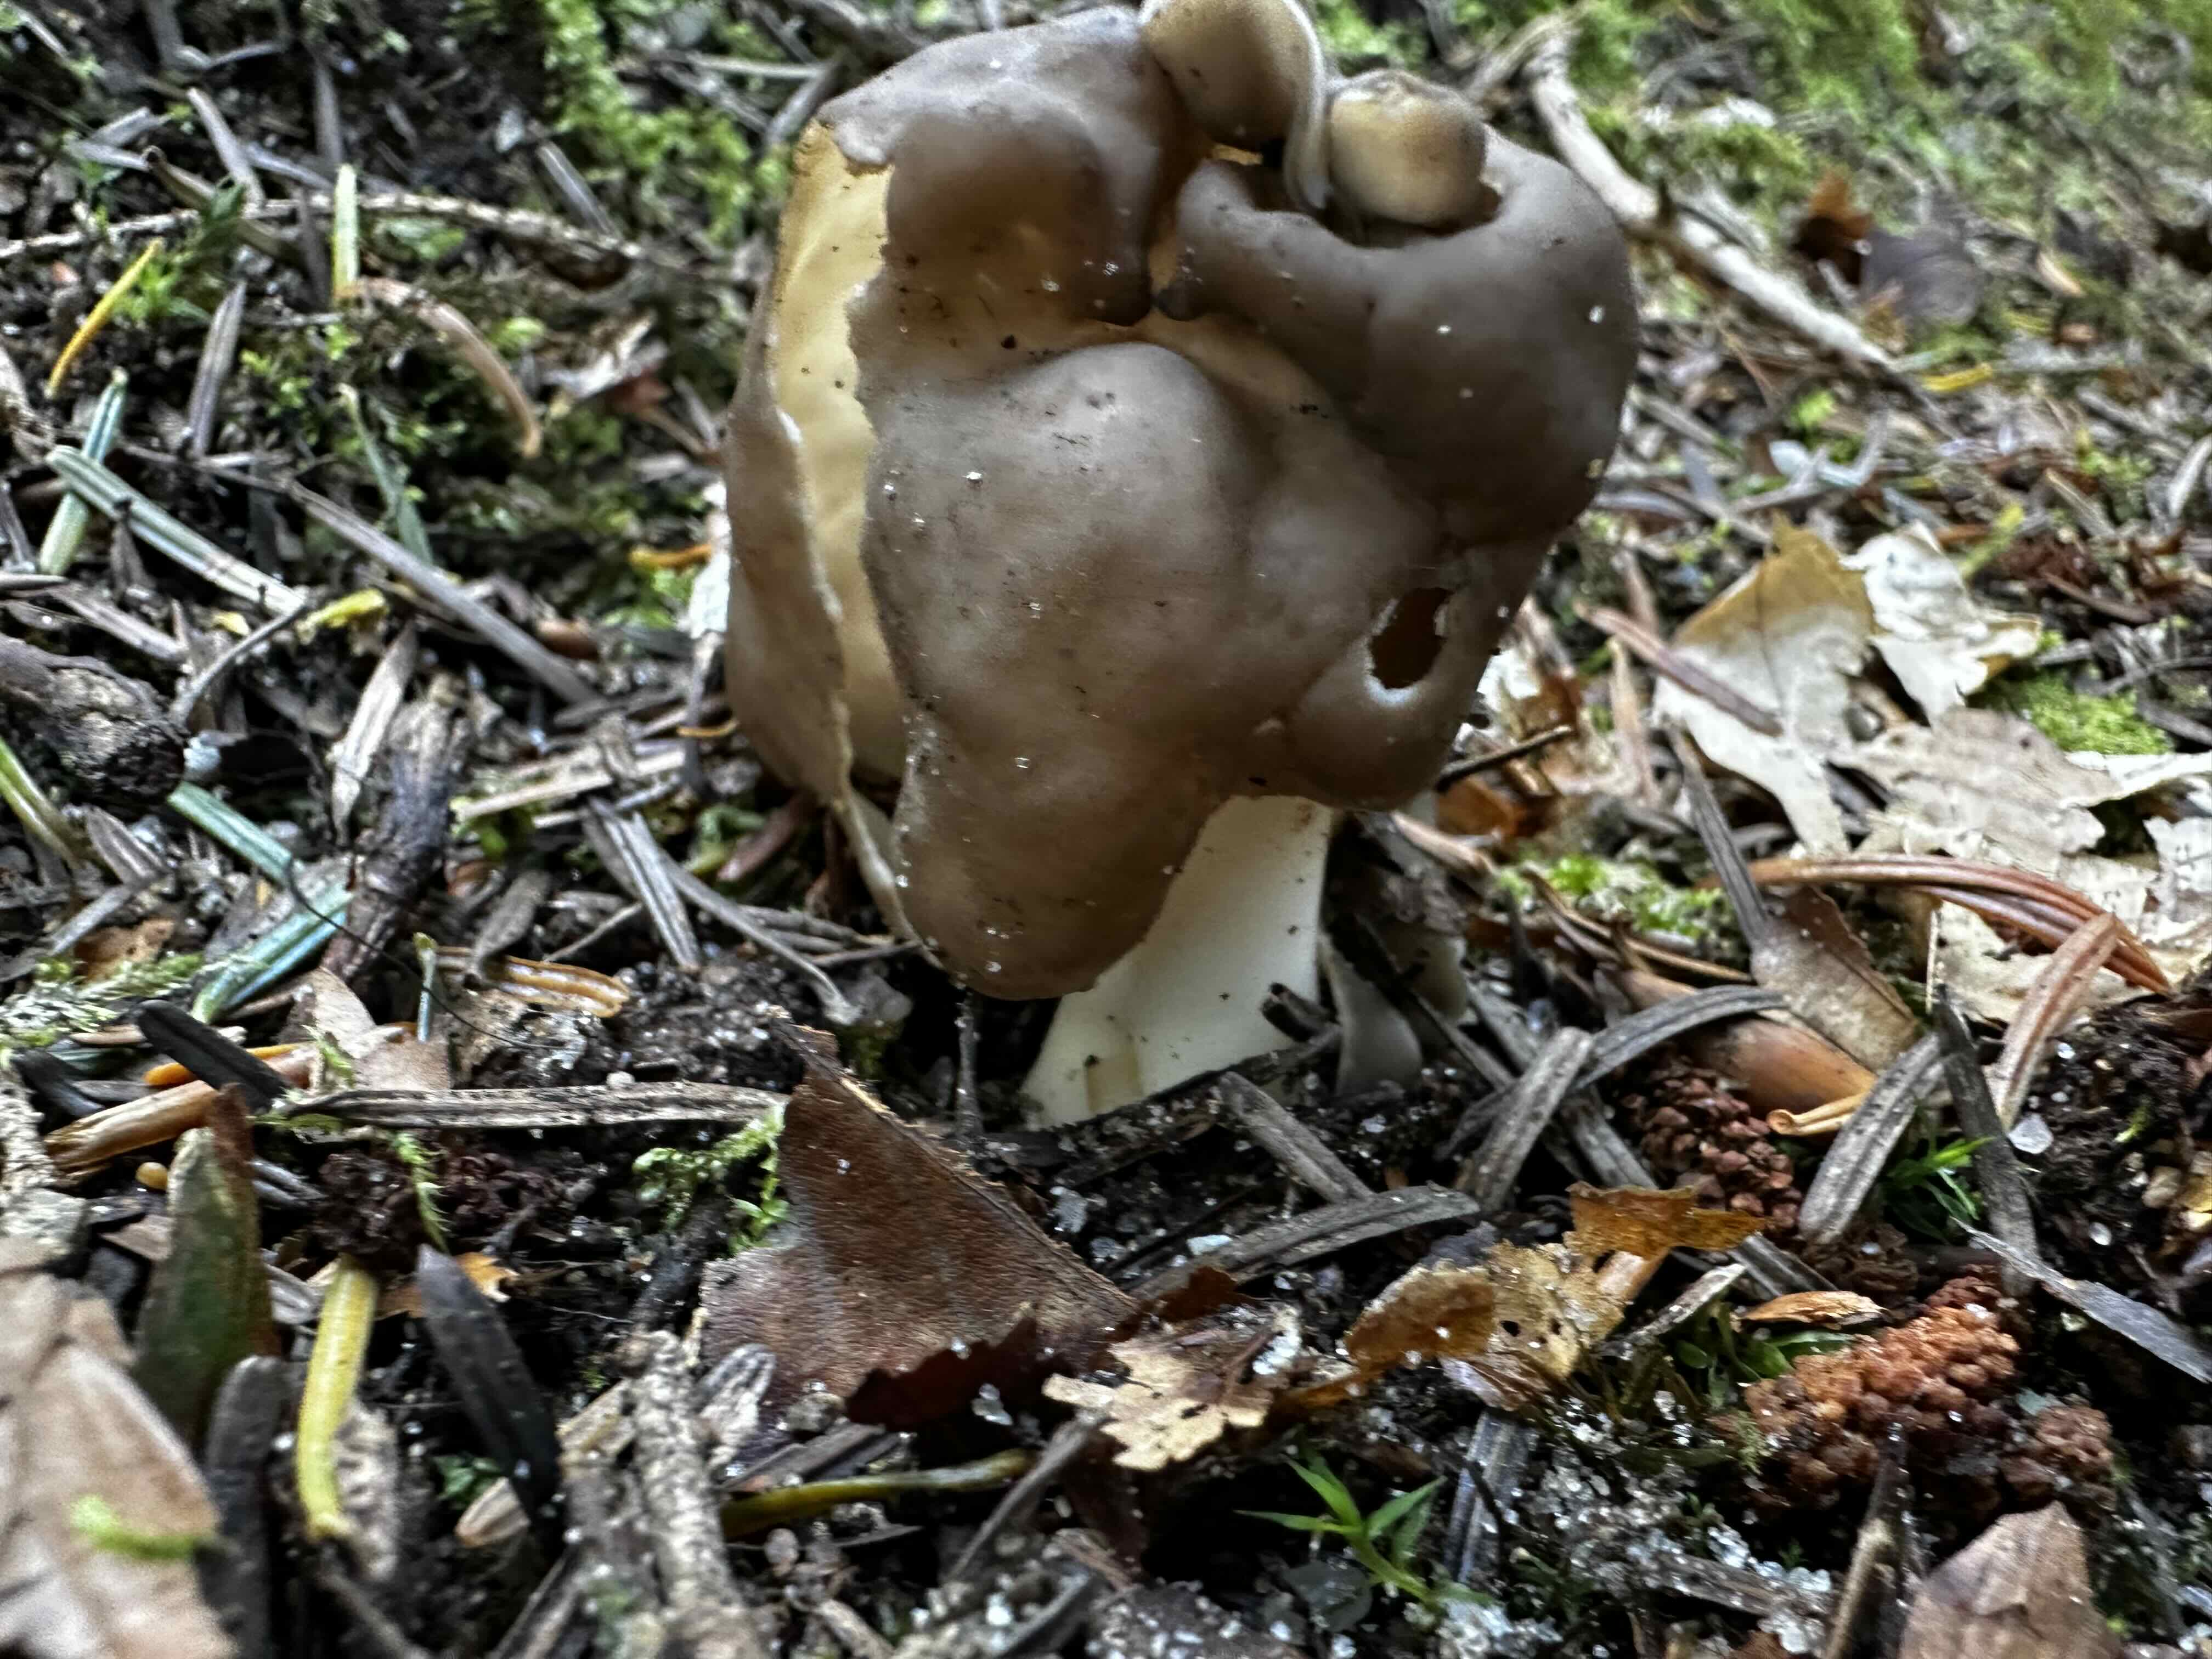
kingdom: Fungi
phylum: Ascomycota
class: Pezizomycetes
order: Pezizales
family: Helvellaceae
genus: Helvella
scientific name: Helvella
